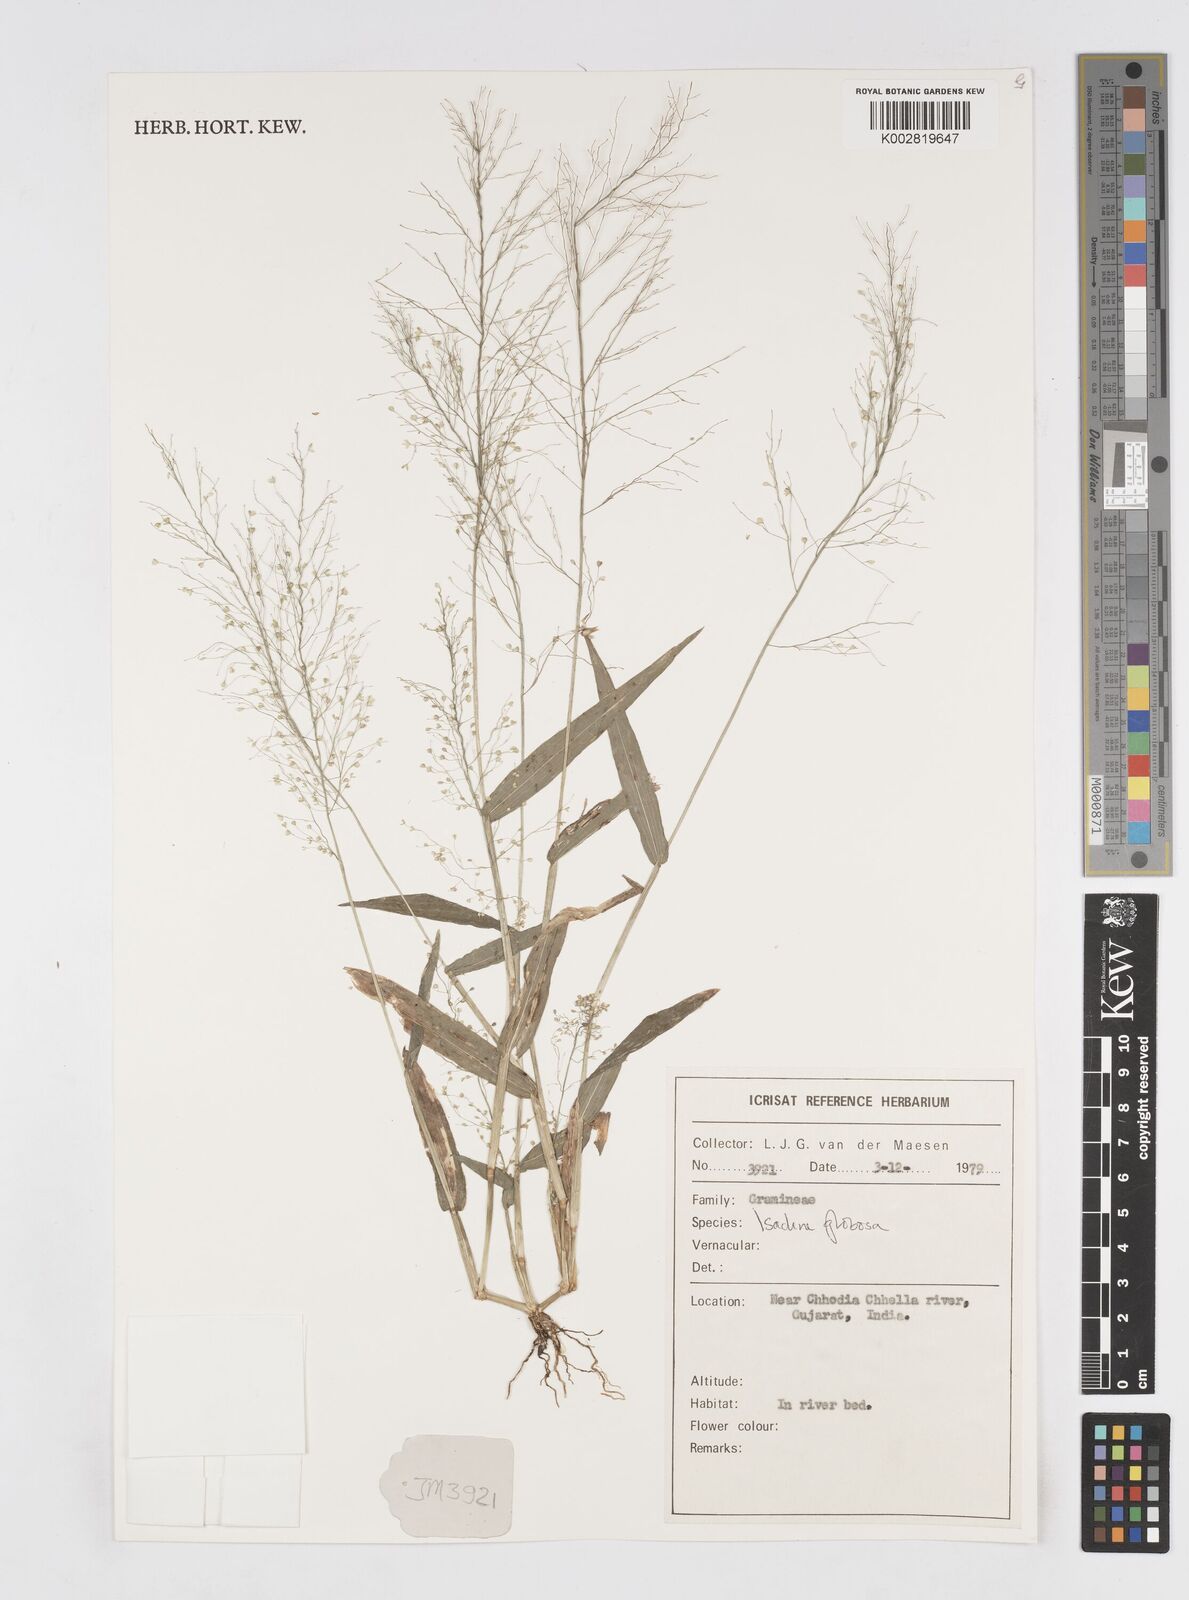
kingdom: Plantae
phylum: Tracheophyta
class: Liliopsida
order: Poales
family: Poaceae
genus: Isachne
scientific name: Isachne globosa
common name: Swamp millet
